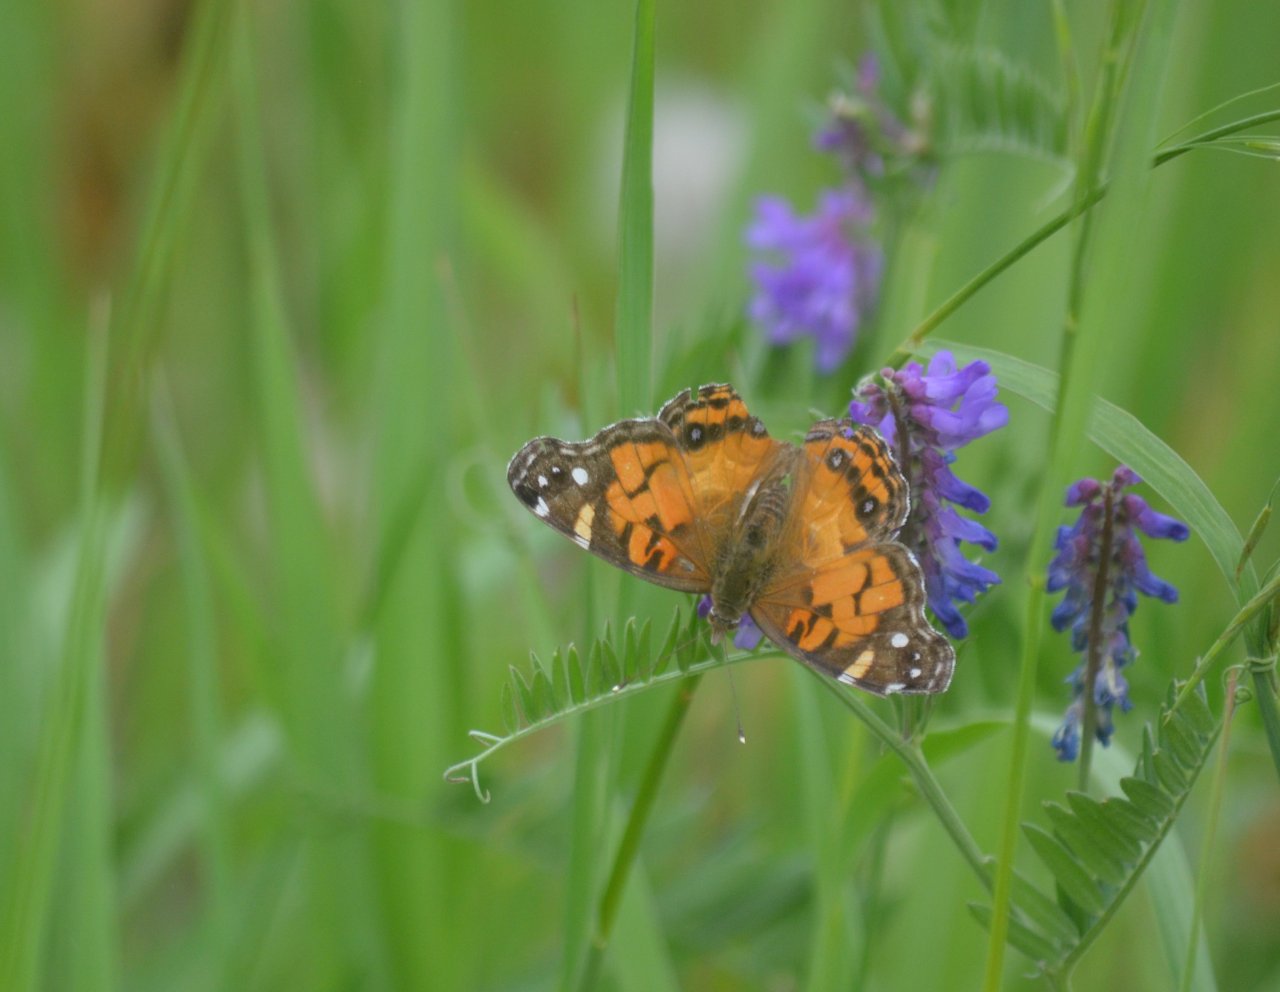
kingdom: Animalia
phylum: Arthropoda
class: Insecta
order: Lepidoptera
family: Nymphalidae
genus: Vanessa
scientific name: Vanessa virginiensis
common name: American Lady
